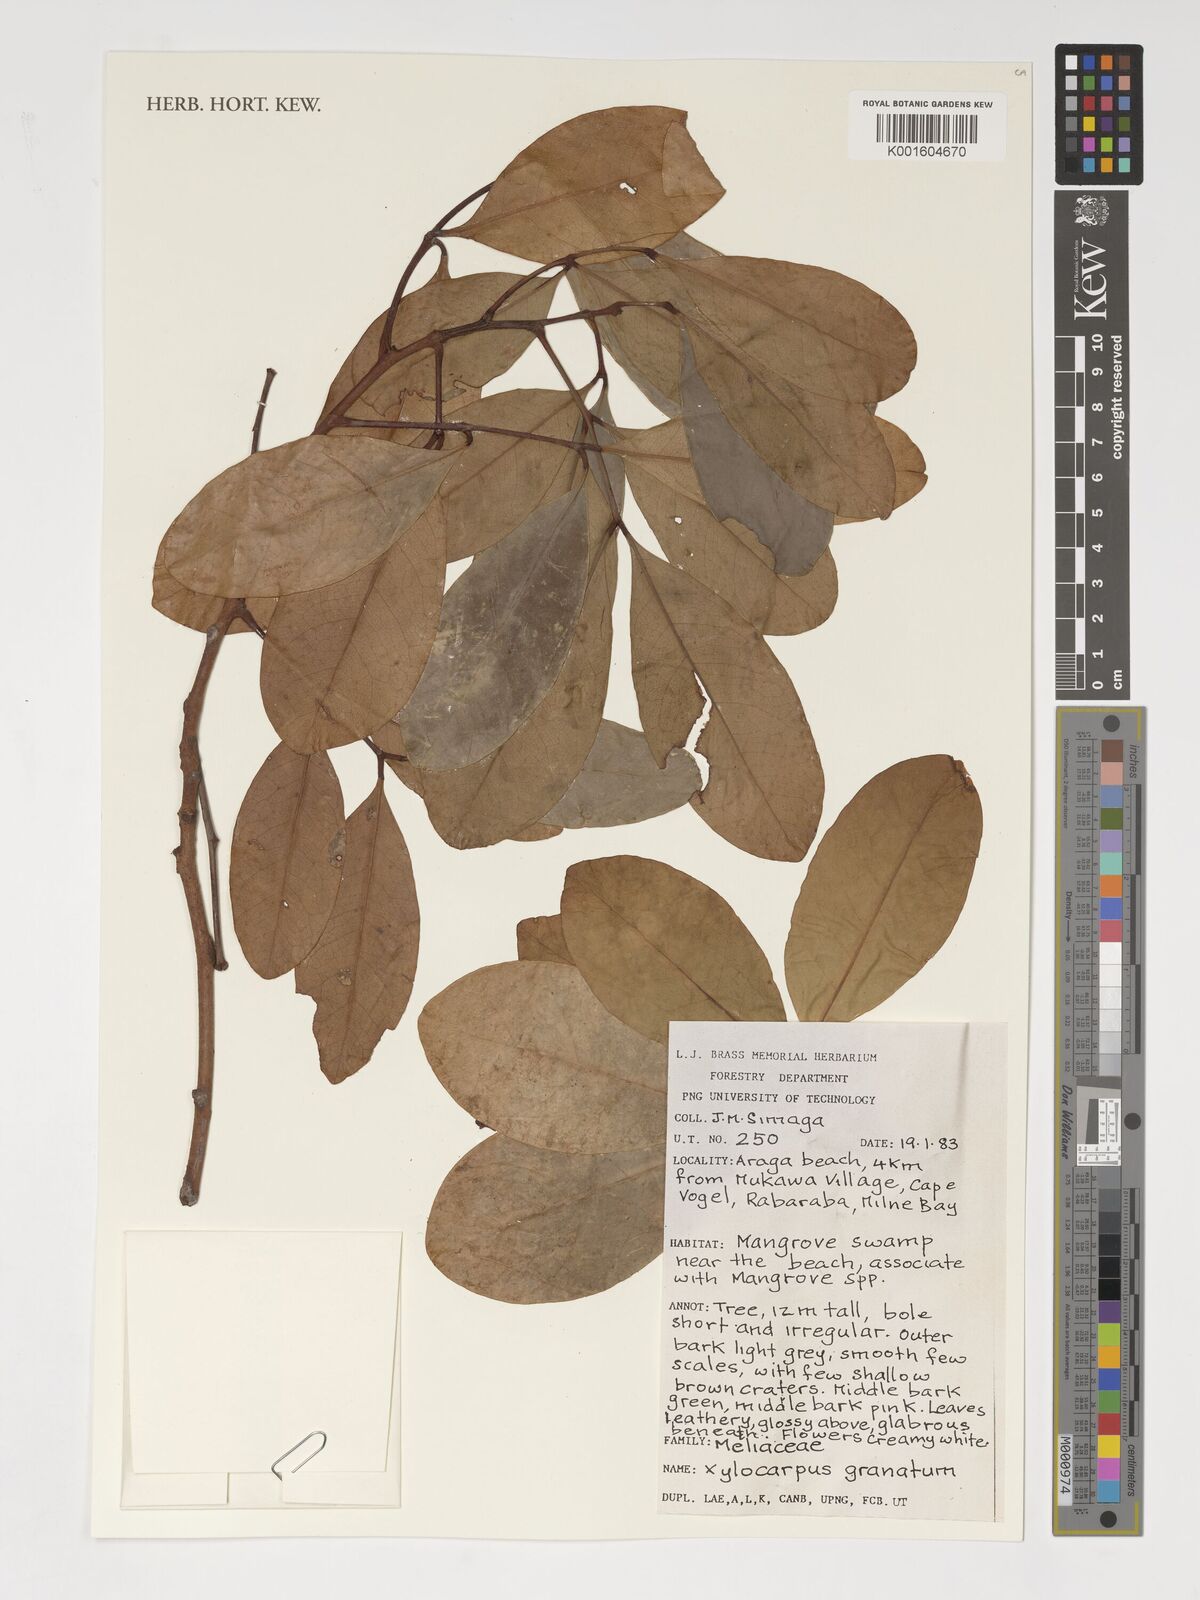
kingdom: Plantae
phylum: Tracheophyta
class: Magnoliopsida
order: Sapindales
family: Meliaceae
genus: Xylocarpus
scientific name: Xylocarpus granatum
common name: Apple mangrove
